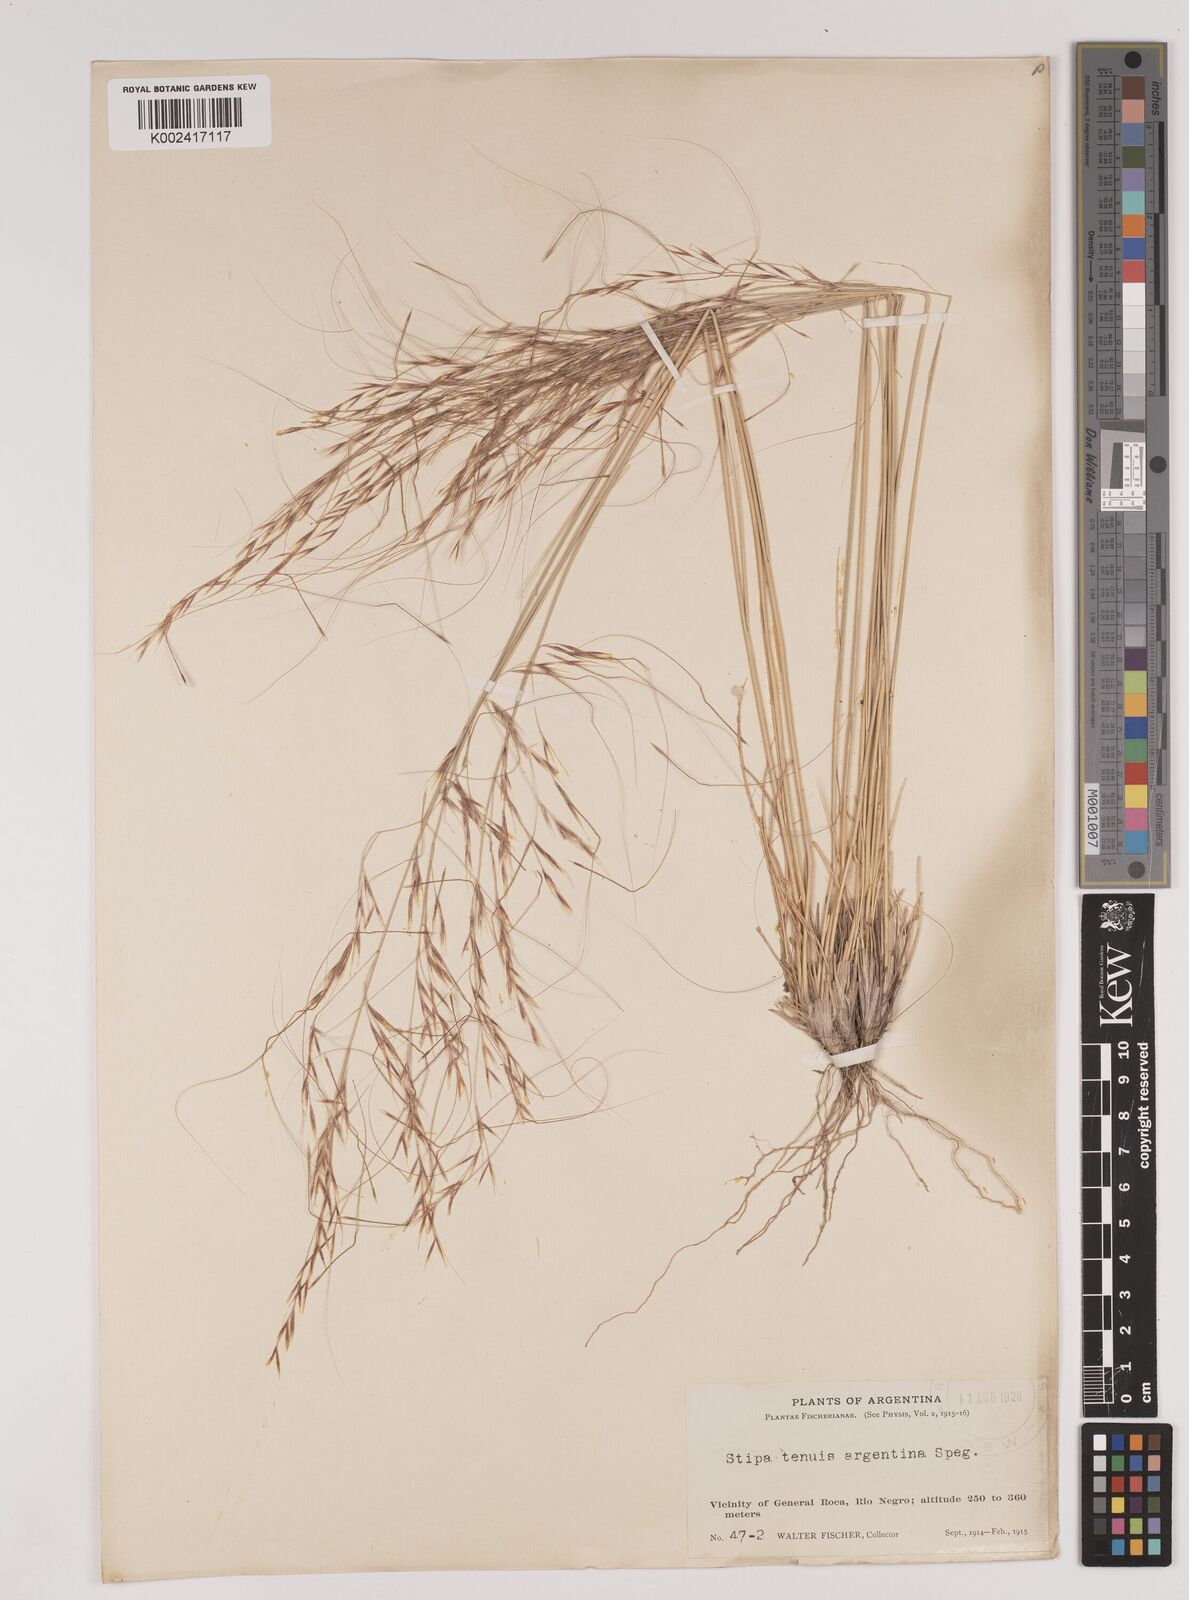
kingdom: Plantae
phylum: Tracheophyta
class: Liliopsida
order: Poales
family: Poaceae
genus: Stipa
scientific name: Stipa
